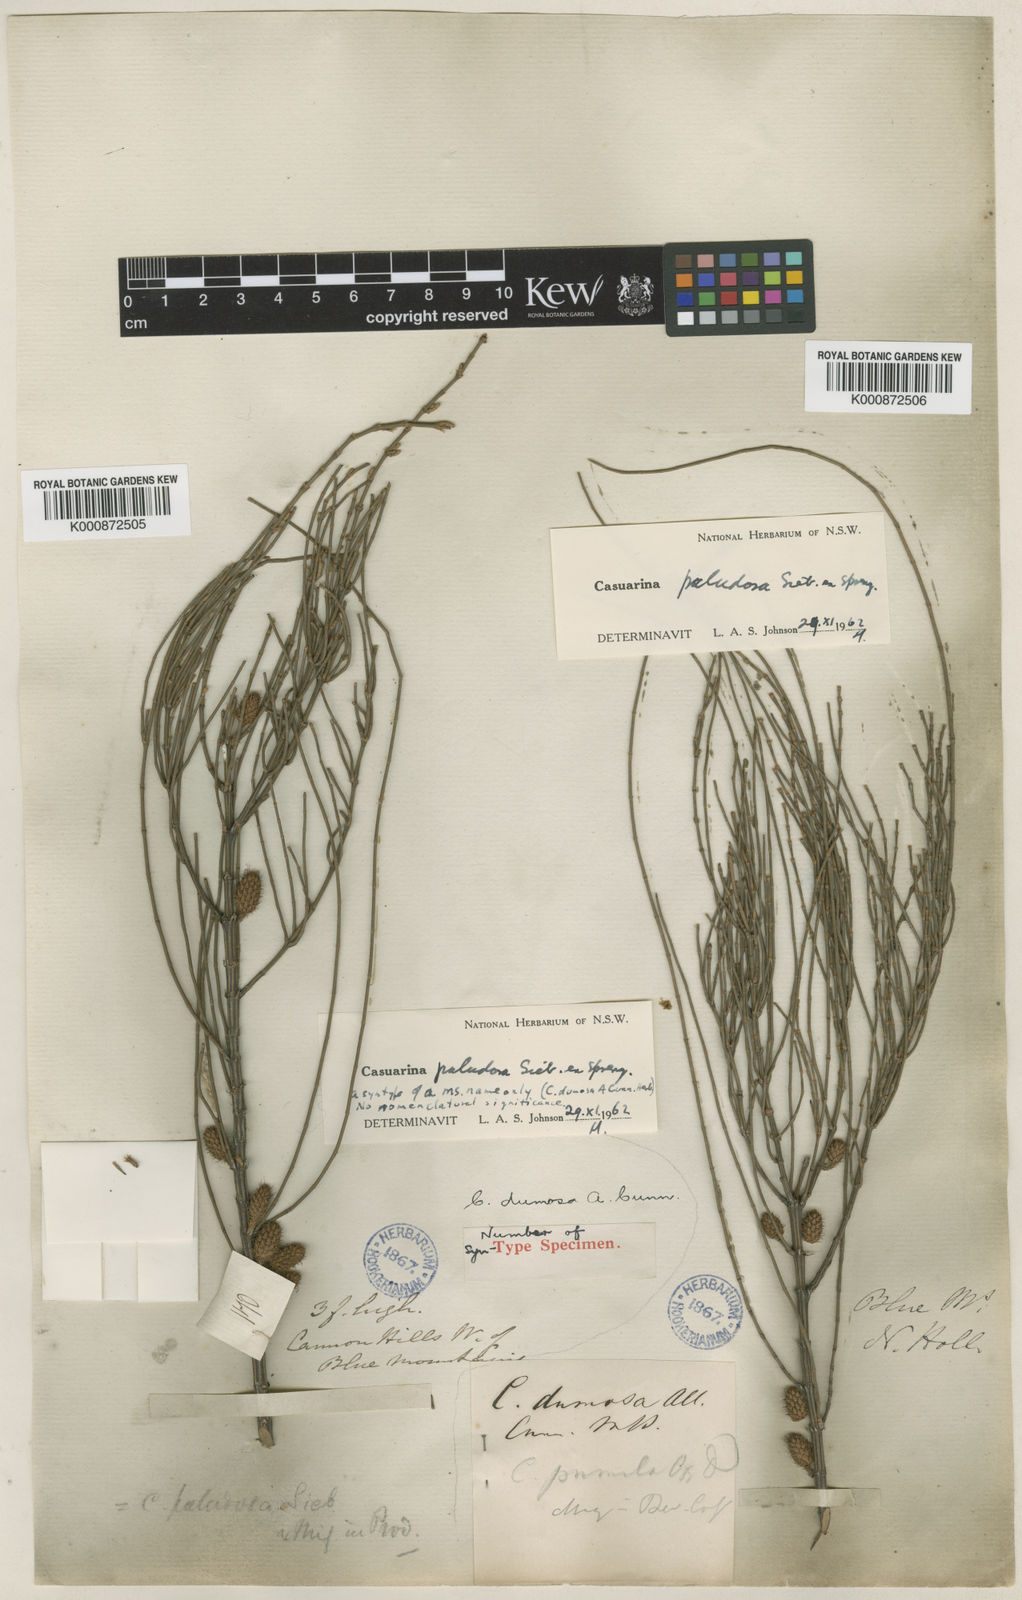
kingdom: Plantae
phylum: Tracheophyta
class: Magnoliopsida
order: Fagales
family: Casuarinaceae
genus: Allocasuarina
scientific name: Allocasuarina paludosa
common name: Scrub she-oak
